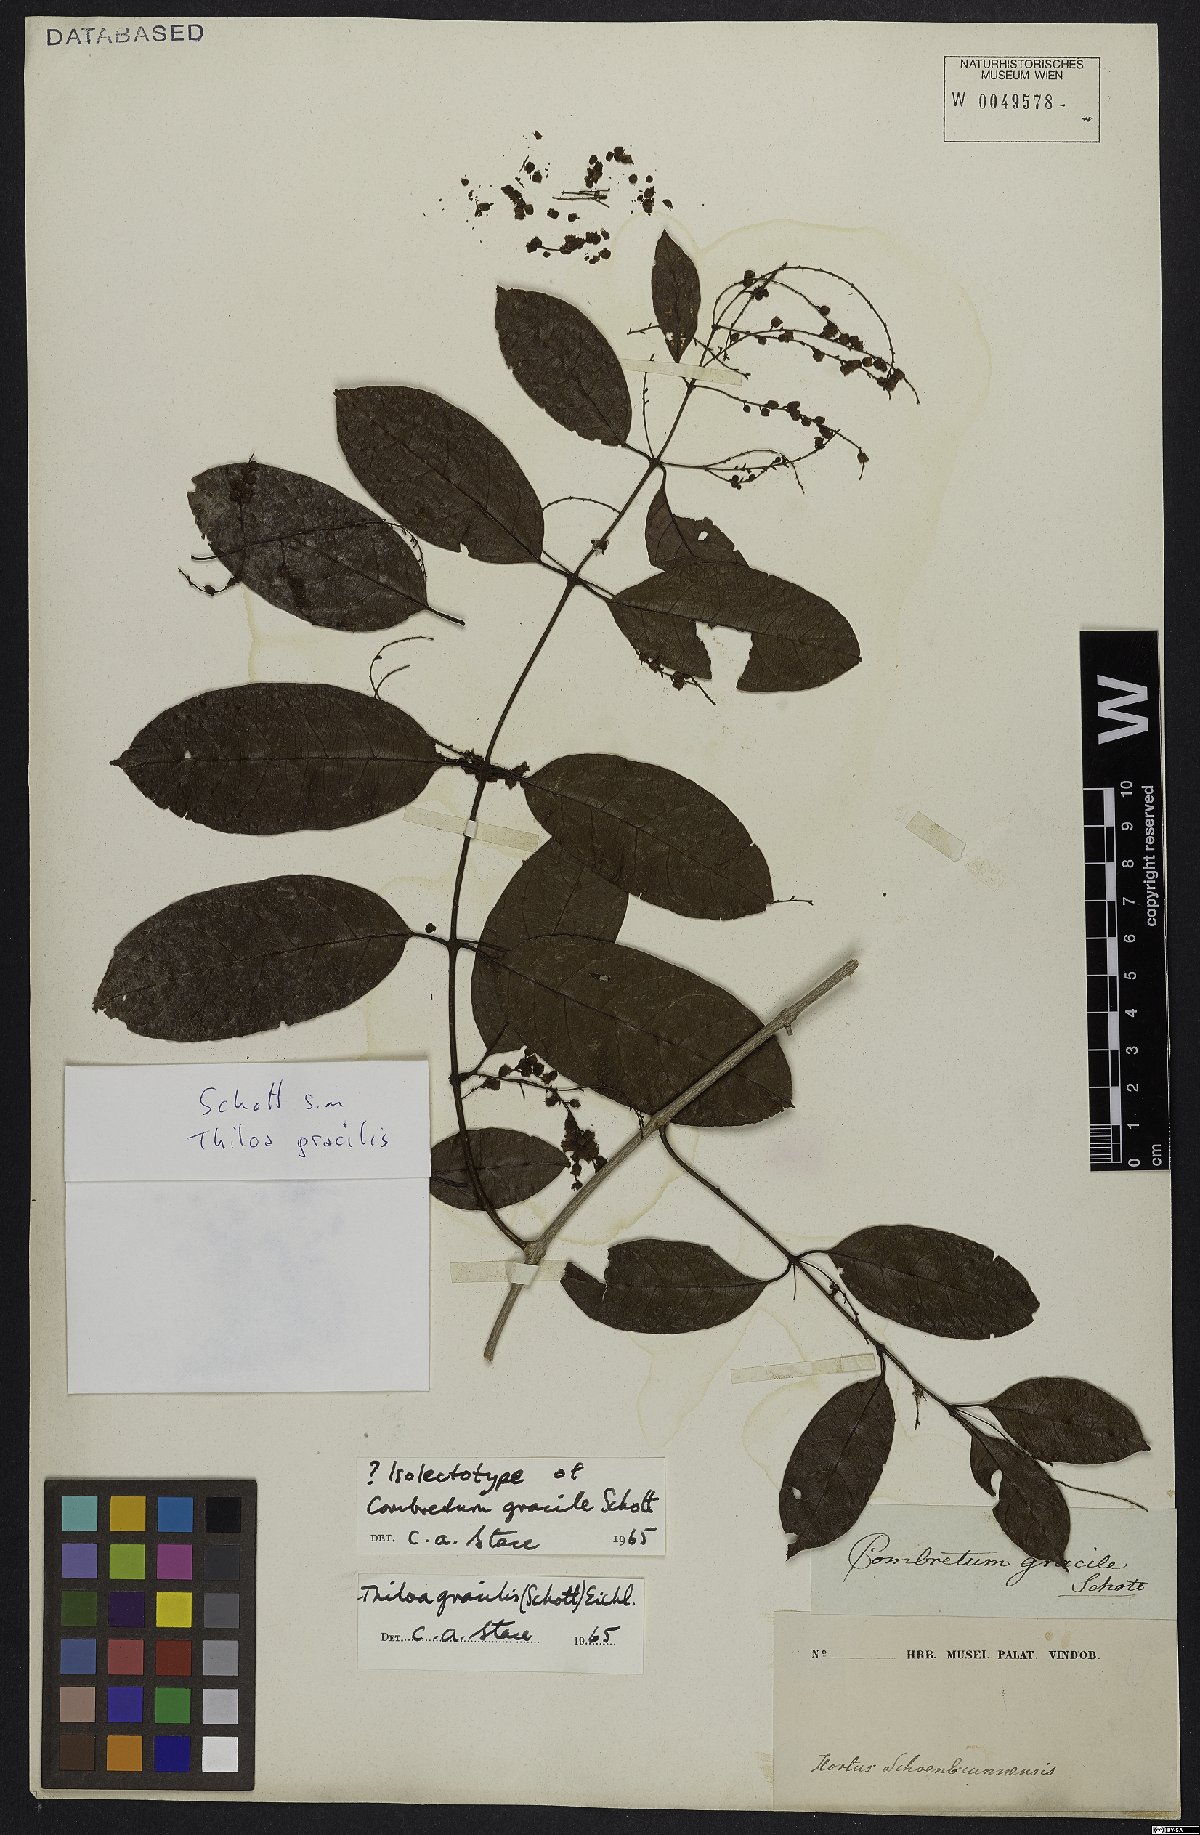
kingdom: Plantae
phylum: Tracheophyta
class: Magnoliopsida
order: Myrtales
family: Combretaceae
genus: Combretum
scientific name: Combretum gracile
